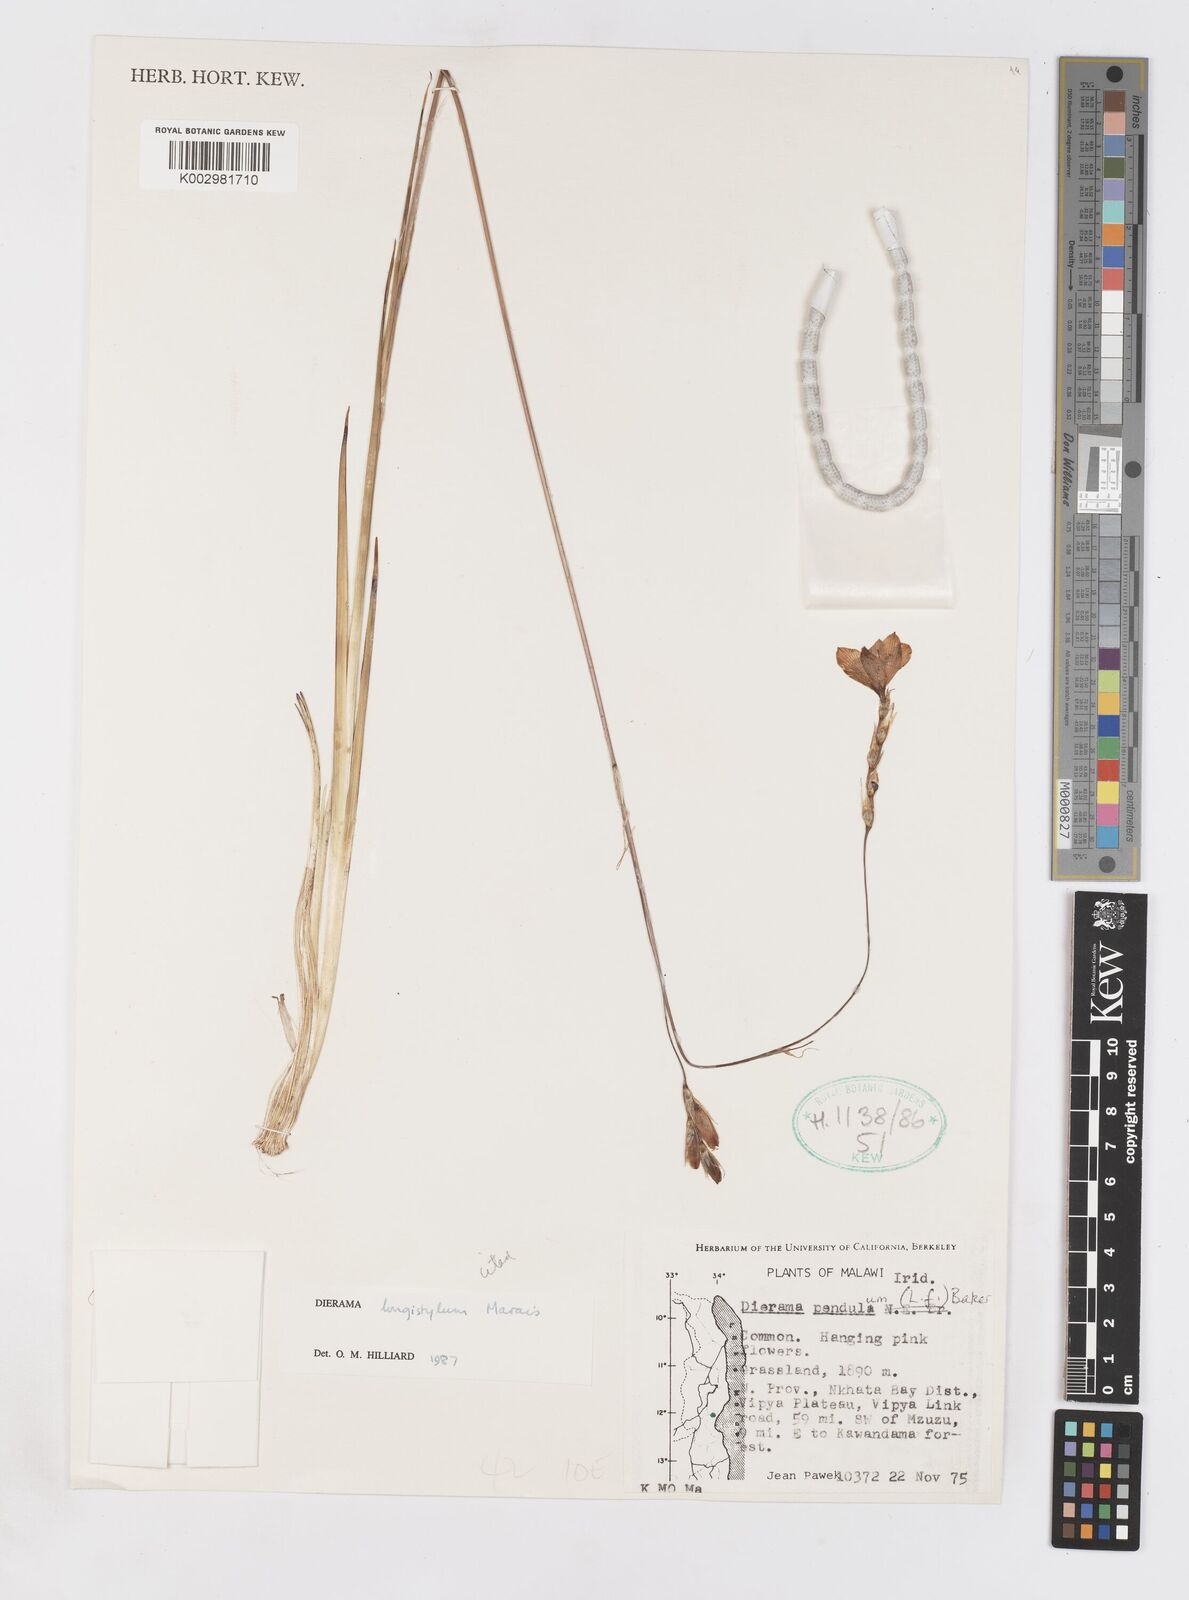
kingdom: Plantae
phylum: Tracheophyta
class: Liliopsida
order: Asparagales
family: Iridaceae
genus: Dierama
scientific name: Dierama longistylum
